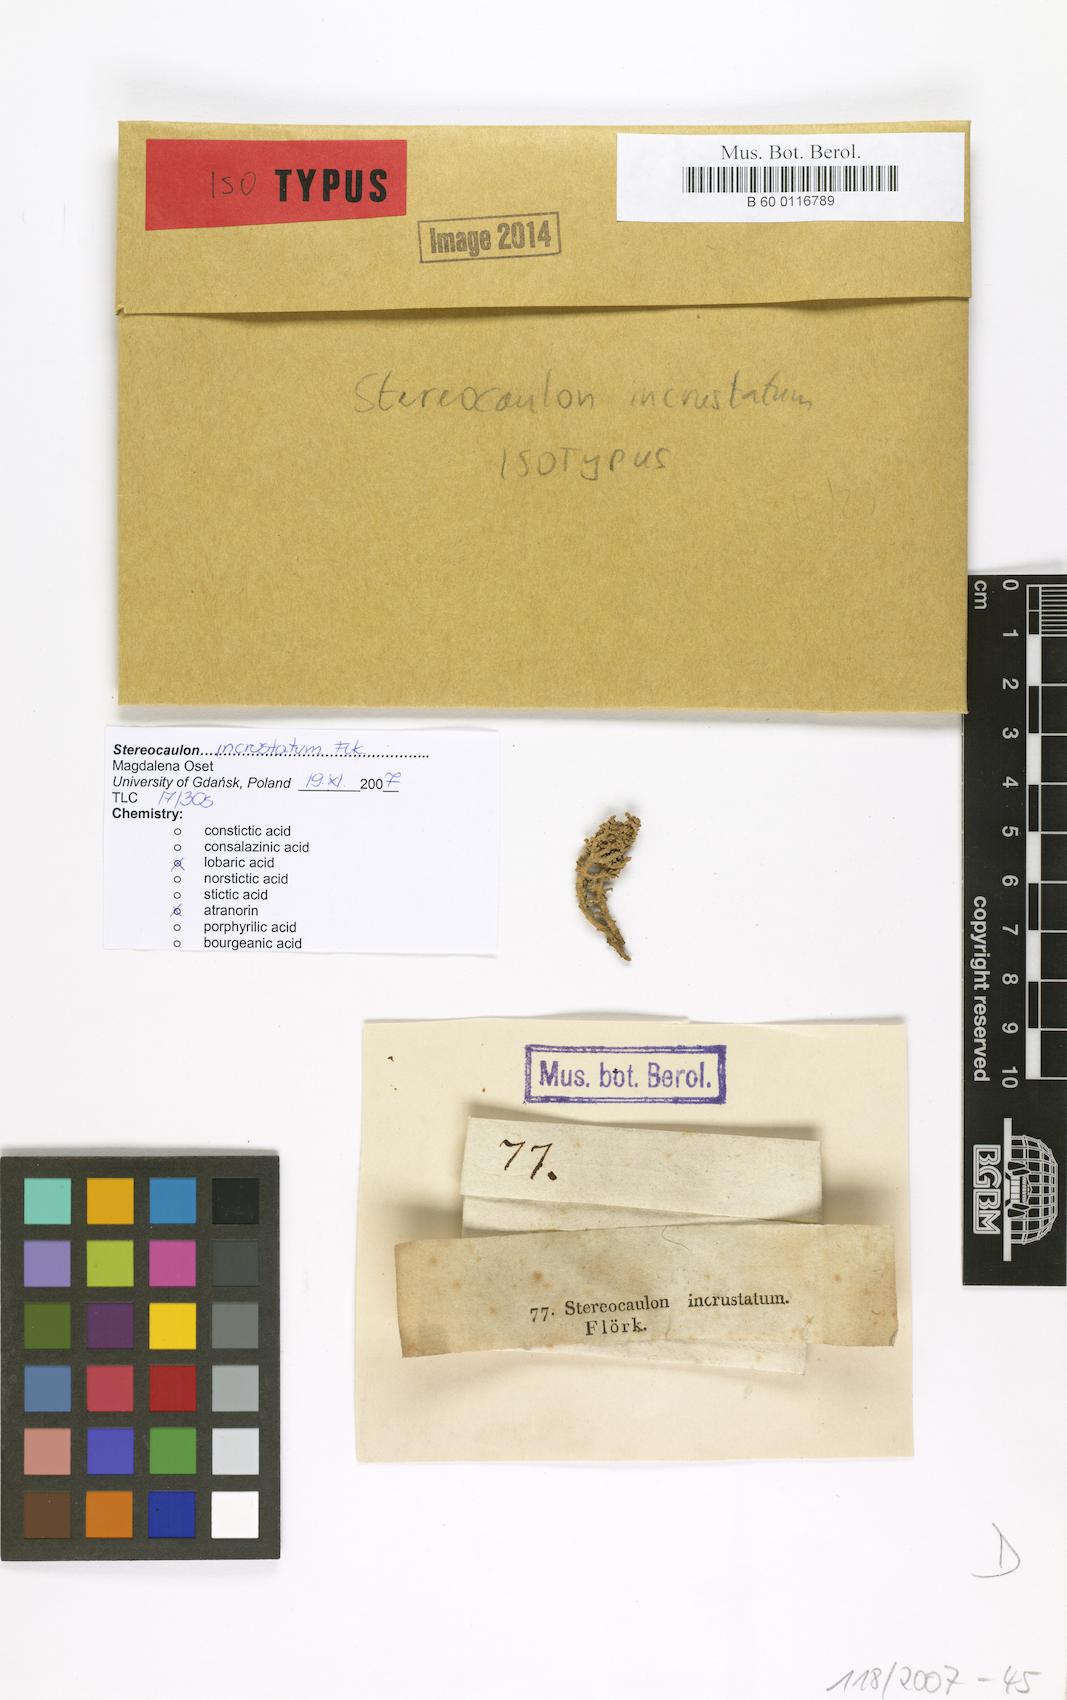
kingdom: Fungi
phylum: Ascomycota
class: Lecanoromycetes
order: Lecanorales
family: Stereocaulaceae
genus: Stereocaulon
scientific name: Stereocaulon incrustatum
